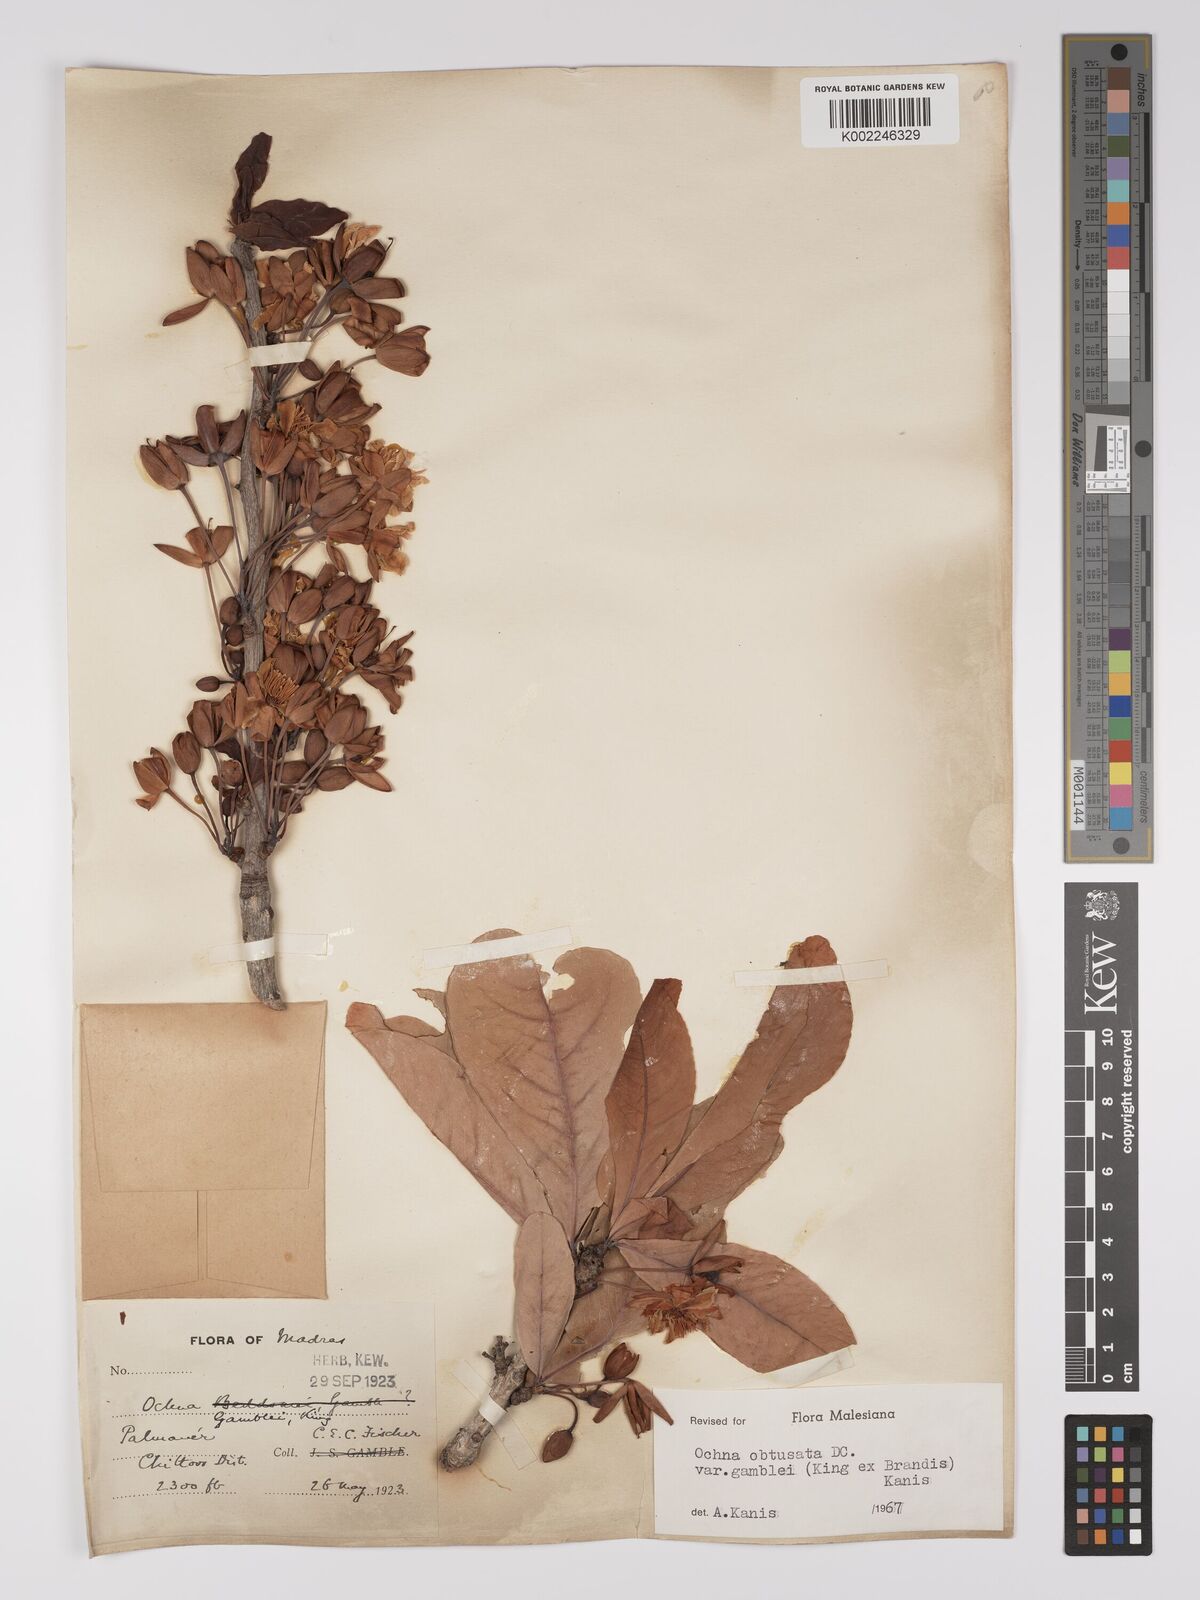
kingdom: Plantae
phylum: Tracheophyta
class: Magnoliopsida
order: Malpighiales
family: Ochnaceae
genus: Ochna
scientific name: Ochna obtusata
